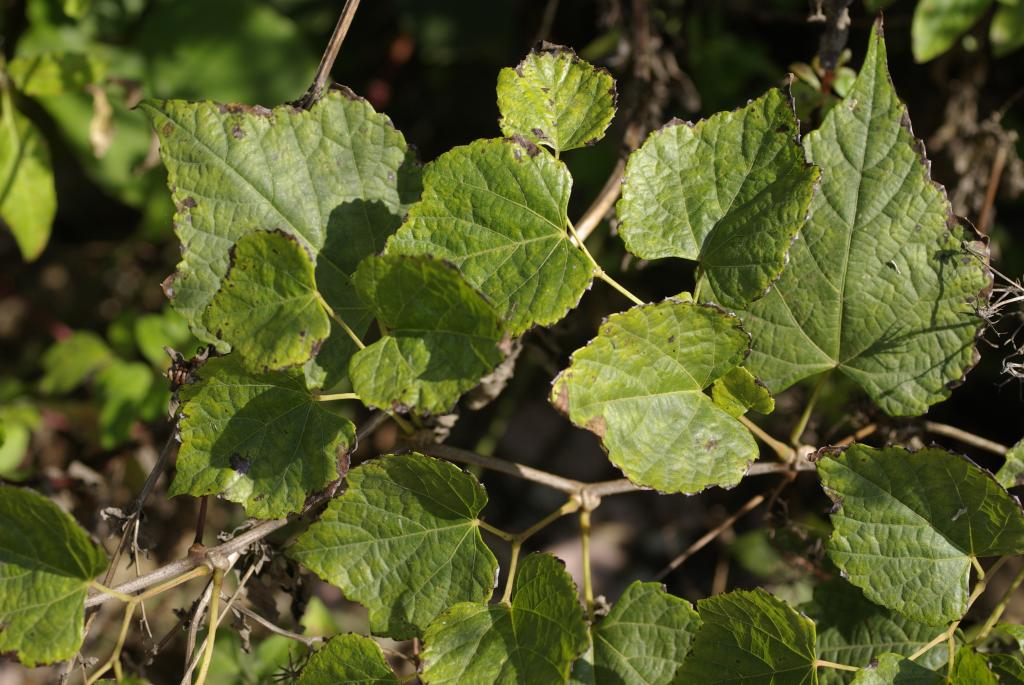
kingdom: Plantae
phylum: Tracheophyta
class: Magnoliopsida
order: Vitales
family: Vitaceae
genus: Ampelopsis
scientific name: Ampelopsis glandulosa
